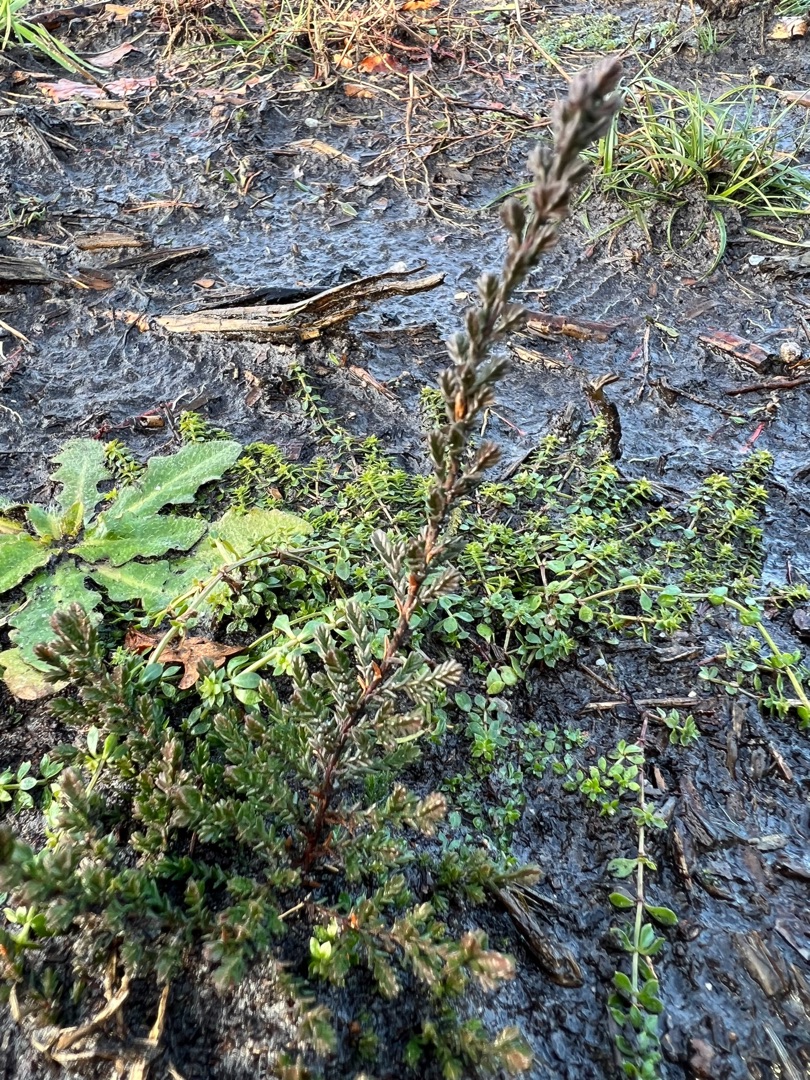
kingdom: Plantae
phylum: Tracheophyta
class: Magnoliopsida
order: Ericales
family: Ericaceae
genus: Calluna
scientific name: Calluna vulgaris
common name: Hedelyng
